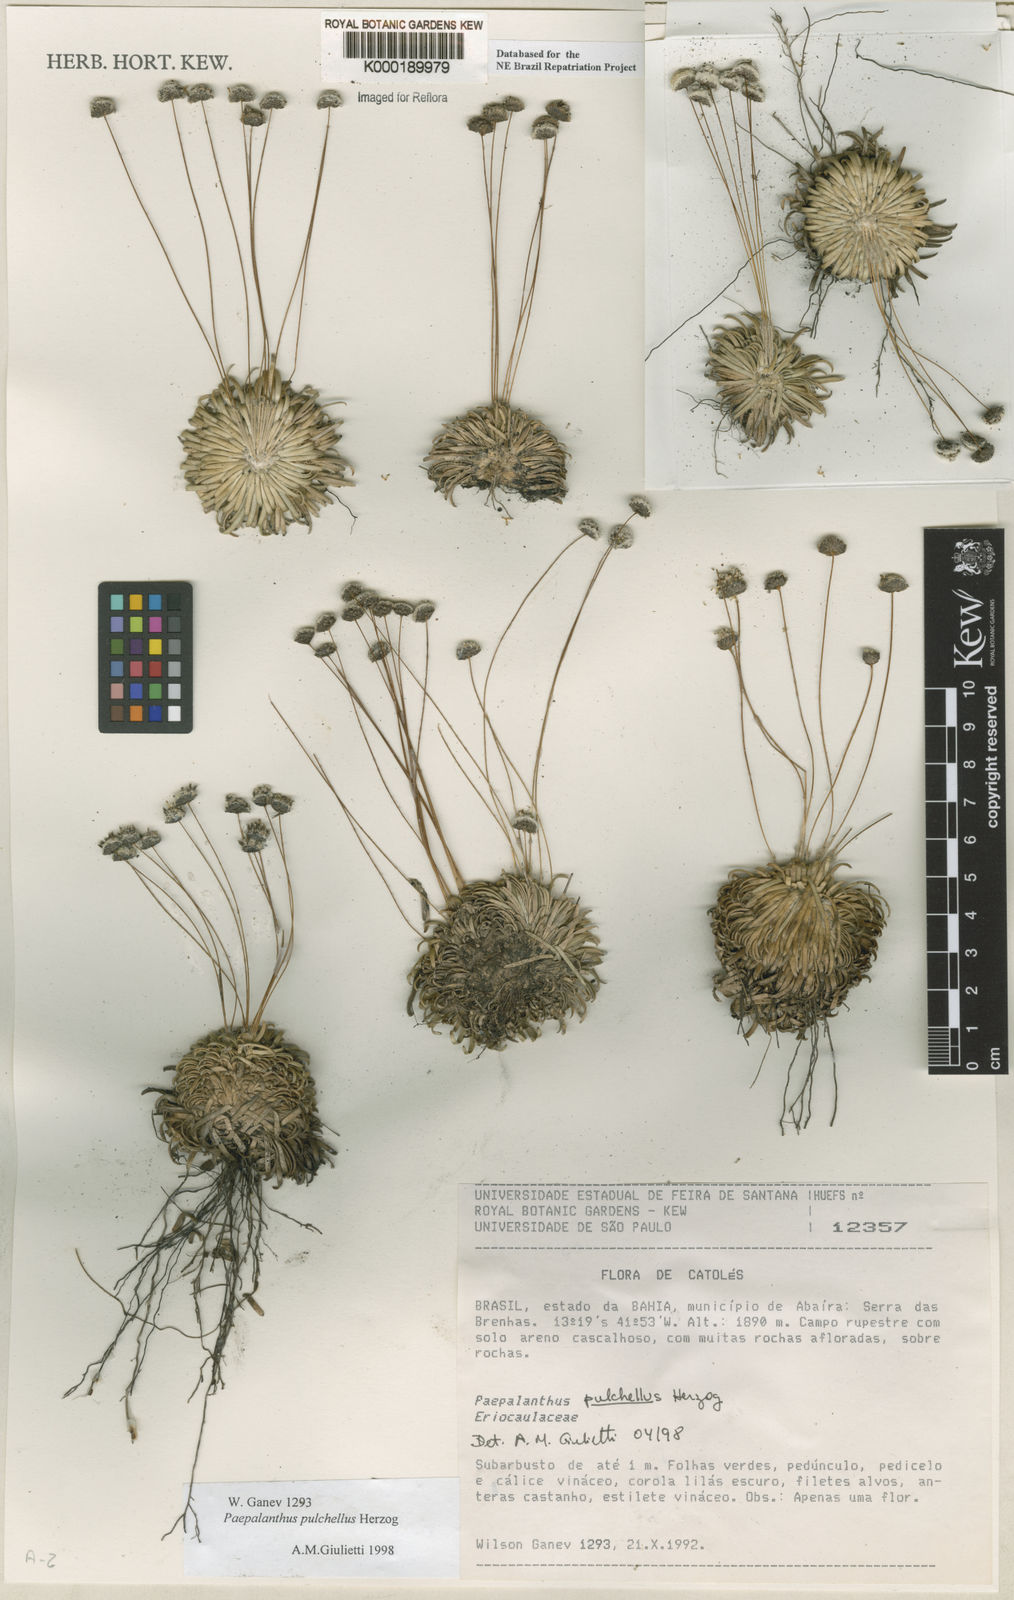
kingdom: Plantae
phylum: Tracheophyta
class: Liliopsida
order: Poales
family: Eriocaulaceae
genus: Paepalanthus
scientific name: Paepalanthus pulchellus
